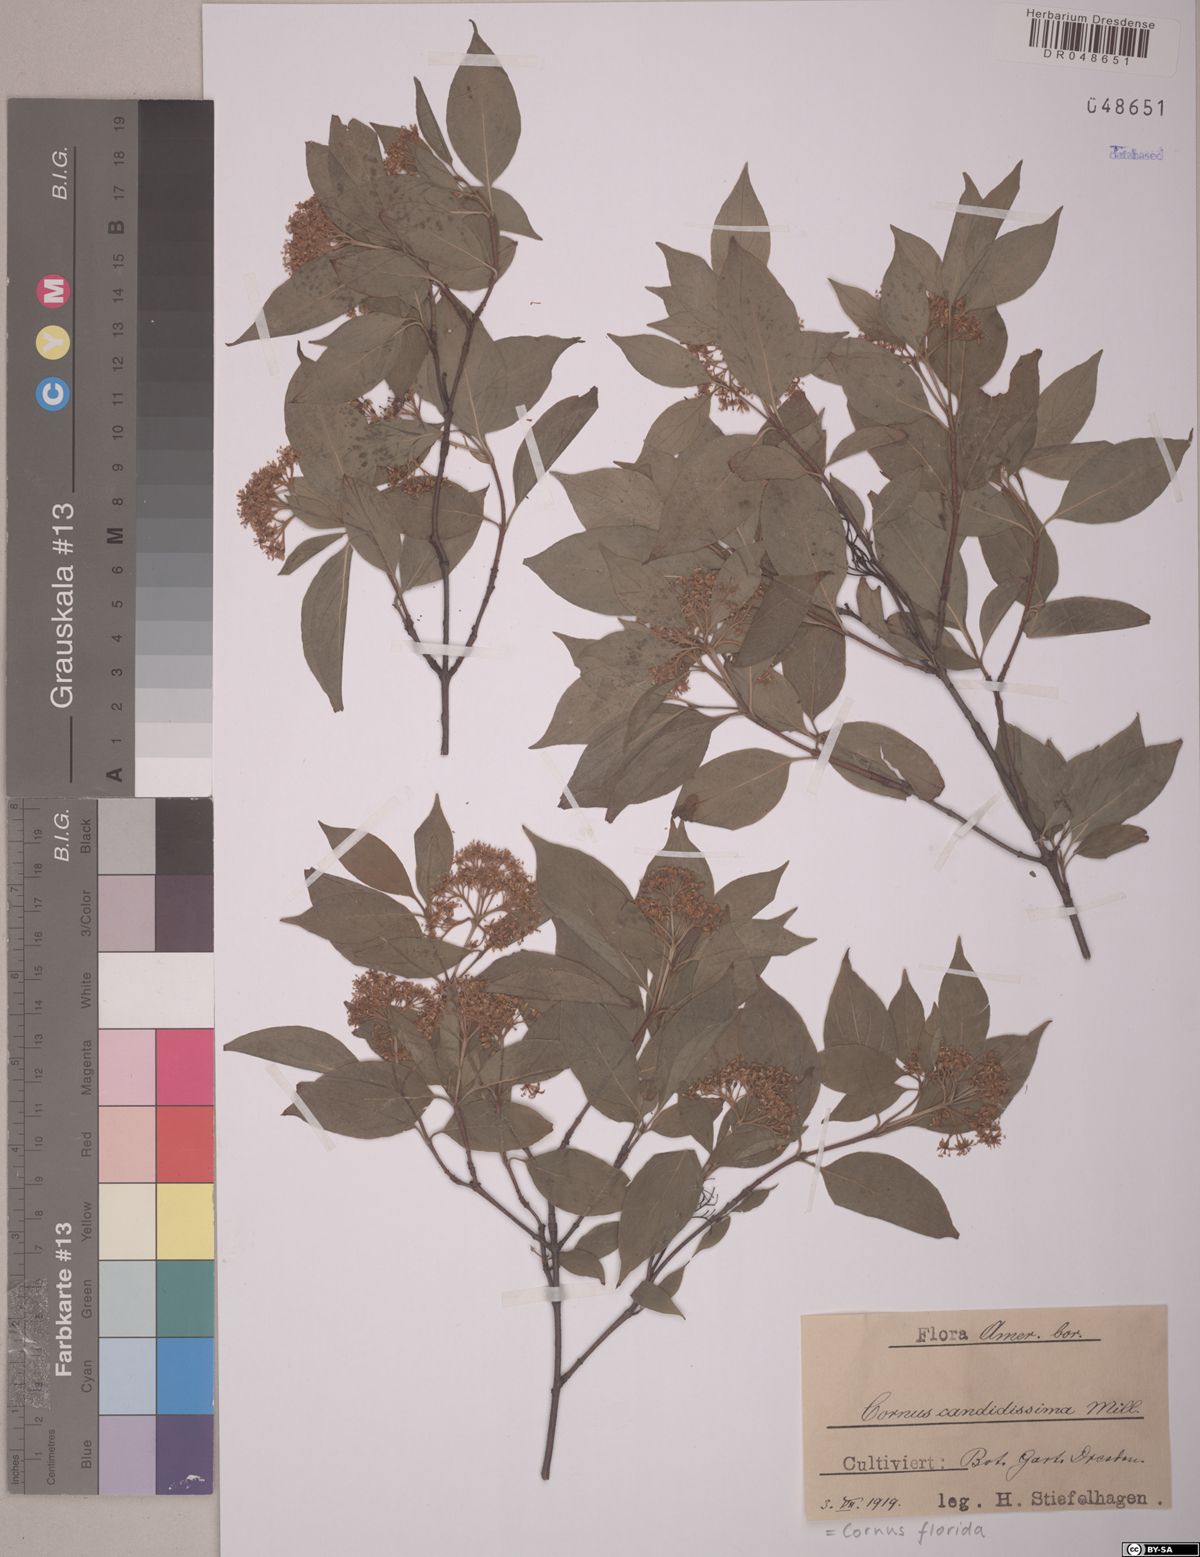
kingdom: Plantae
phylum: Tracheophyta
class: Magnoliopsida
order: Cornales
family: Cornaceae
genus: Cornus
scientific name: Cornus florida
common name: Flowering dogwood
